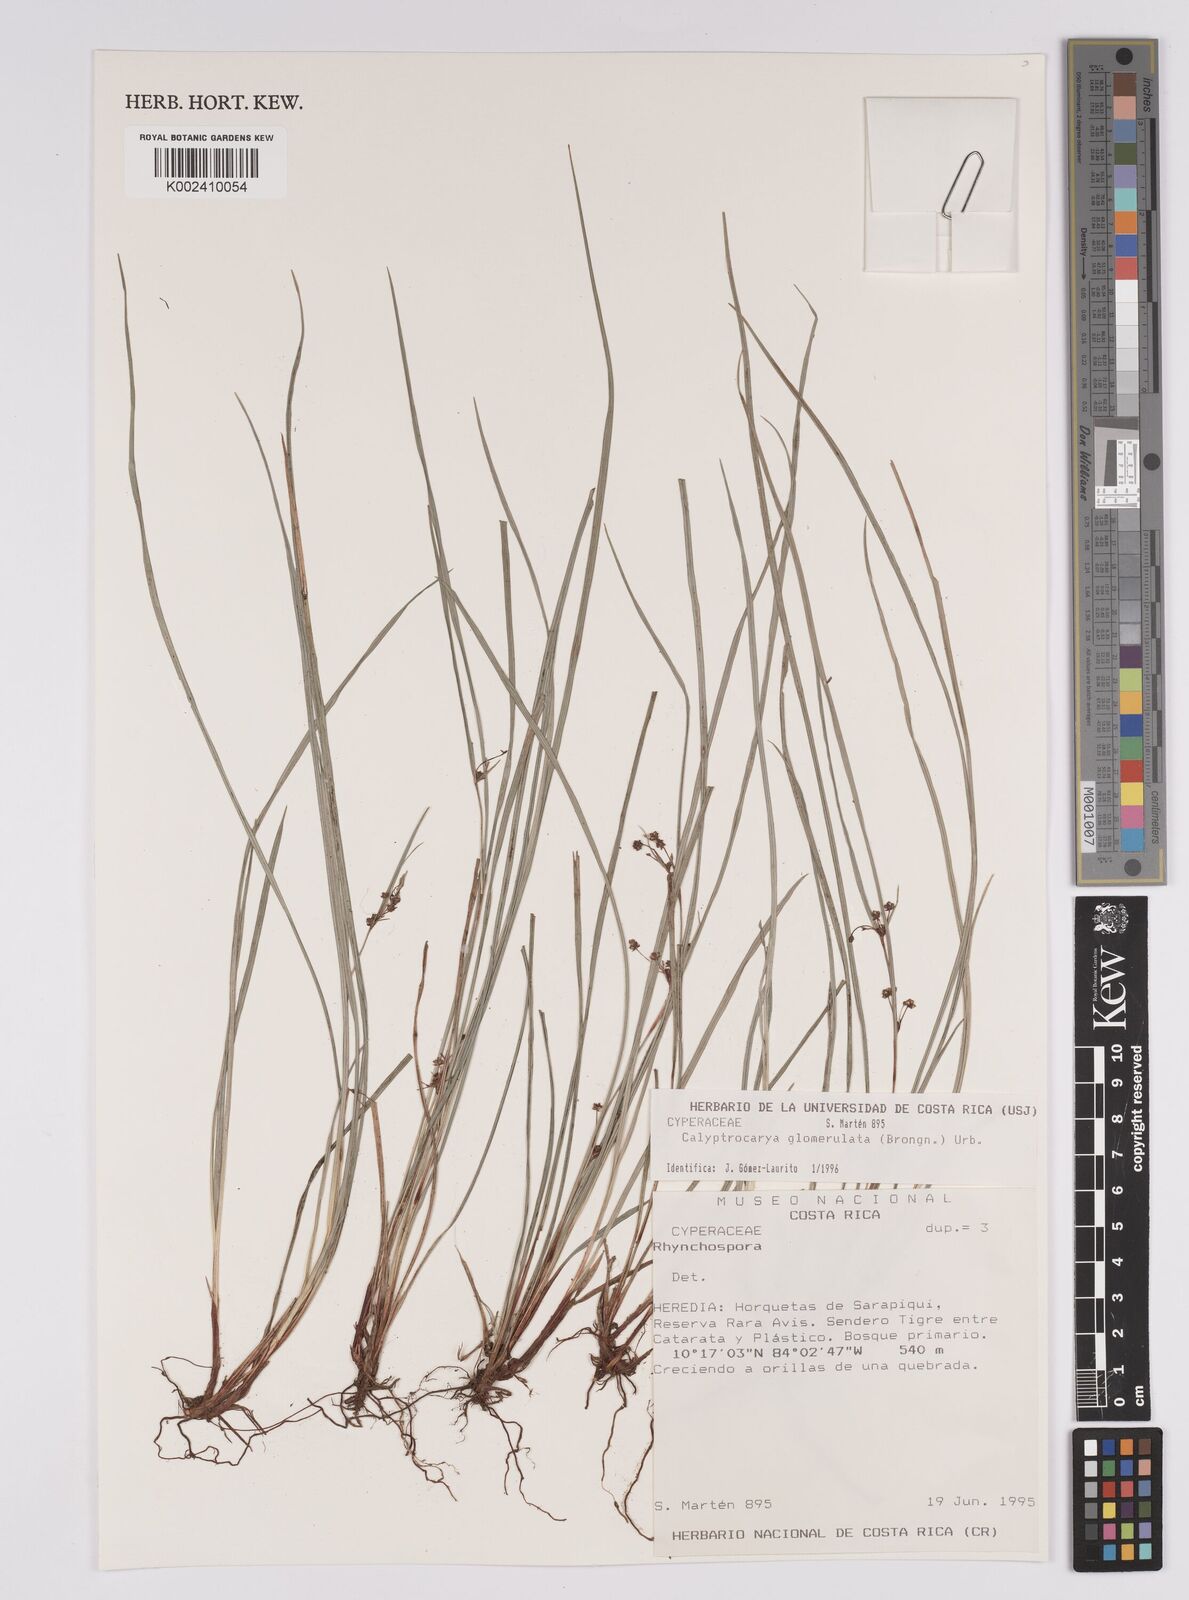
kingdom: Plantae
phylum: Tracheophyta
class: Liliopsida
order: Poales
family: Cyperaceae
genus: Calyptrocarya
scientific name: Calyptrocarya glomerulata
